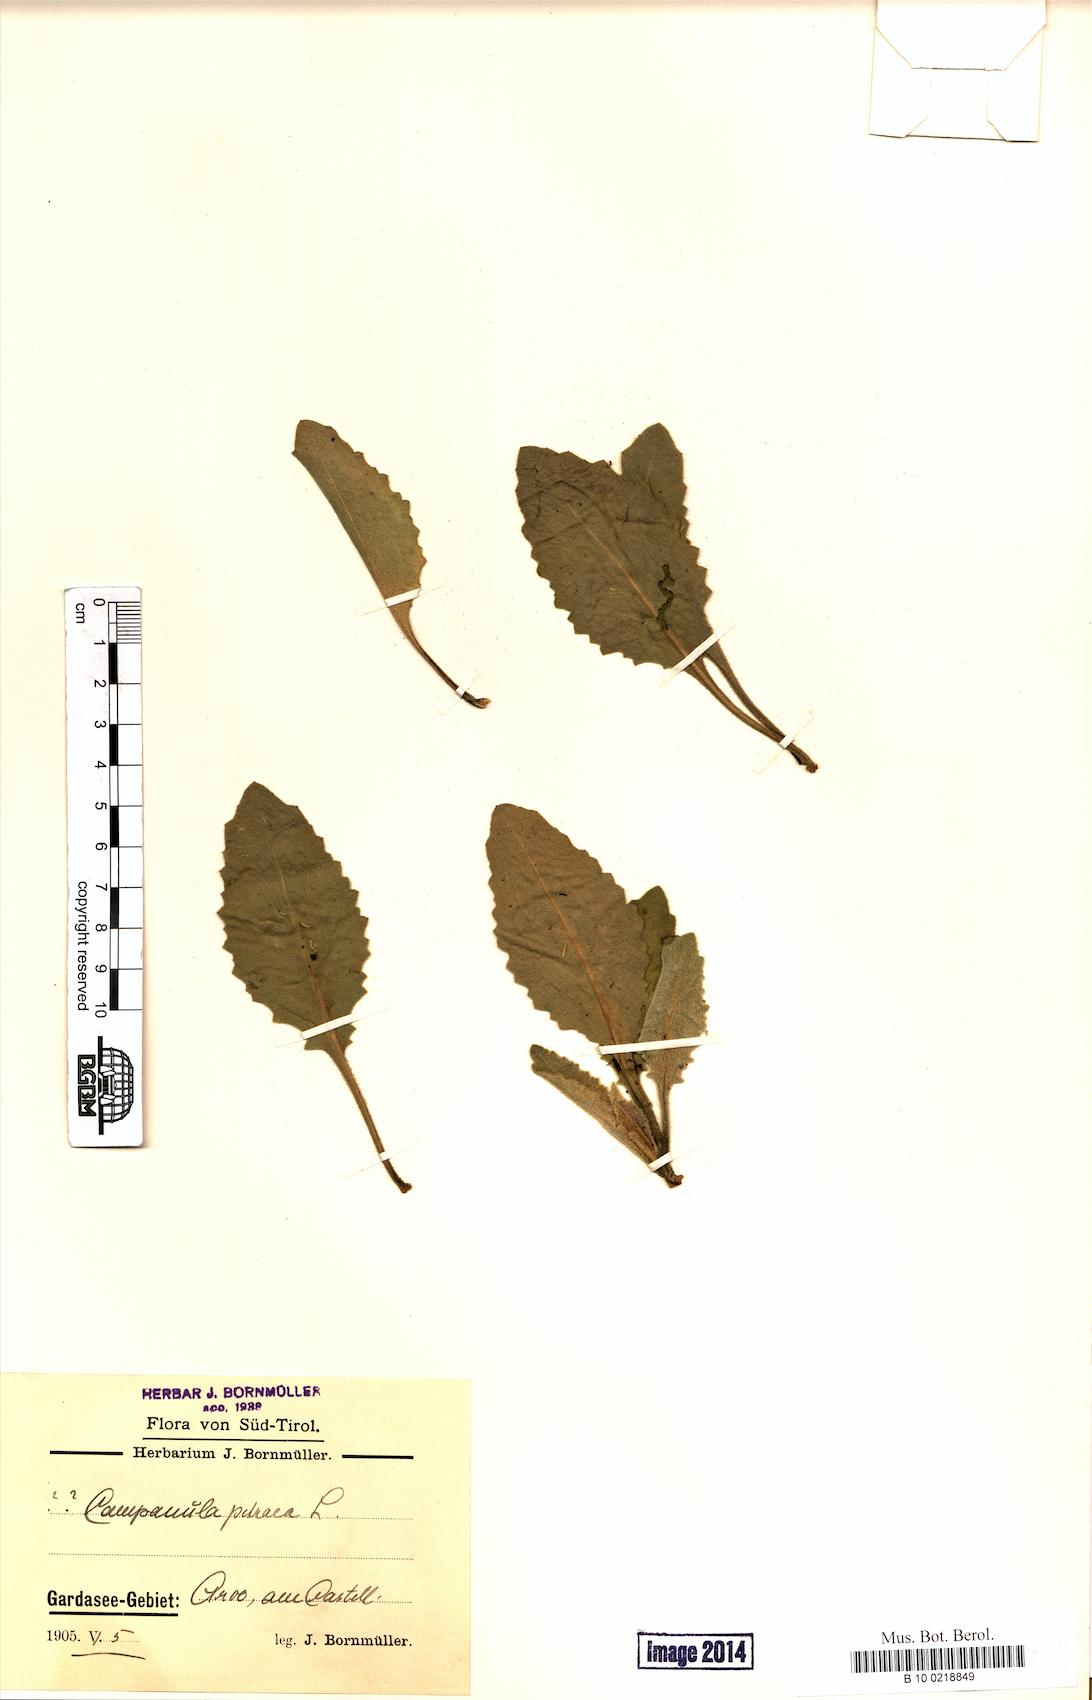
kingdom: Plantae
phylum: Tracheophyta
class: Magnoliopsida
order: Asterales
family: Campanulaceae
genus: Campanula
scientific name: Campanula petraea
